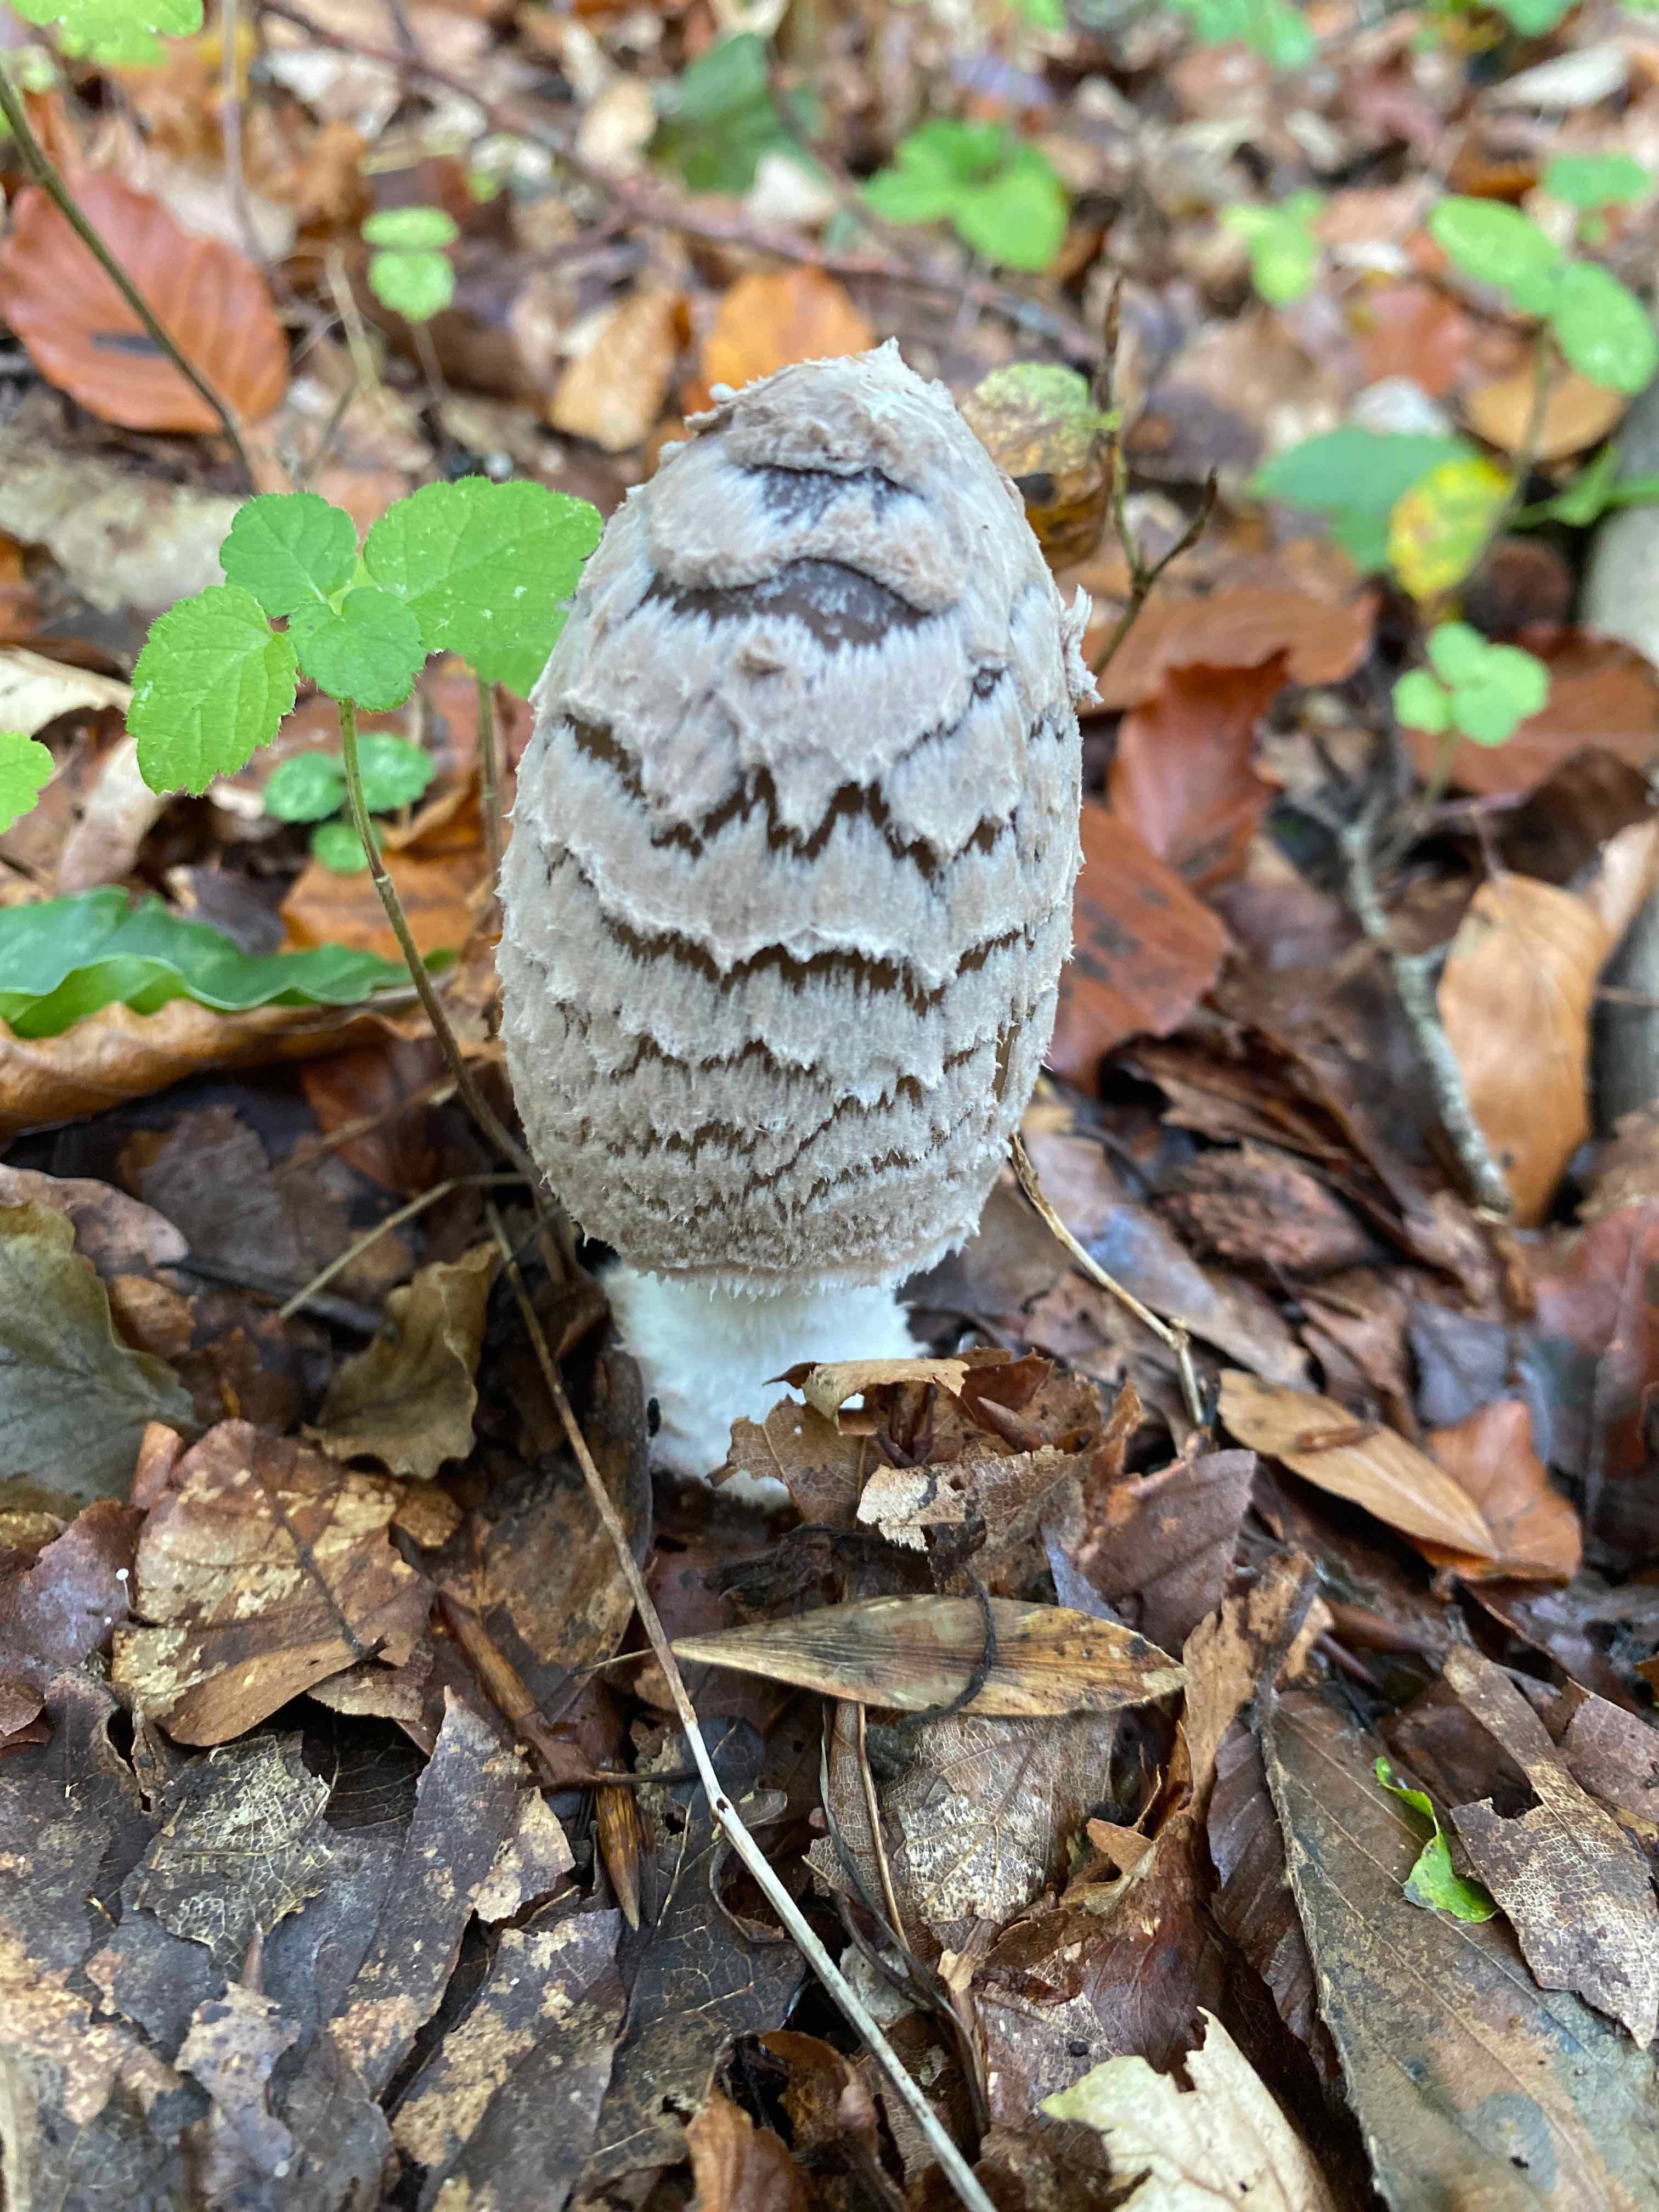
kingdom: Fungi
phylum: Basidiomycota
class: Agaricomycetes
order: Agaricales
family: Psathyrellaceae
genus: Coprinopsis
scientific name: Coprinopsis picacea
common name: skade-blækhat
